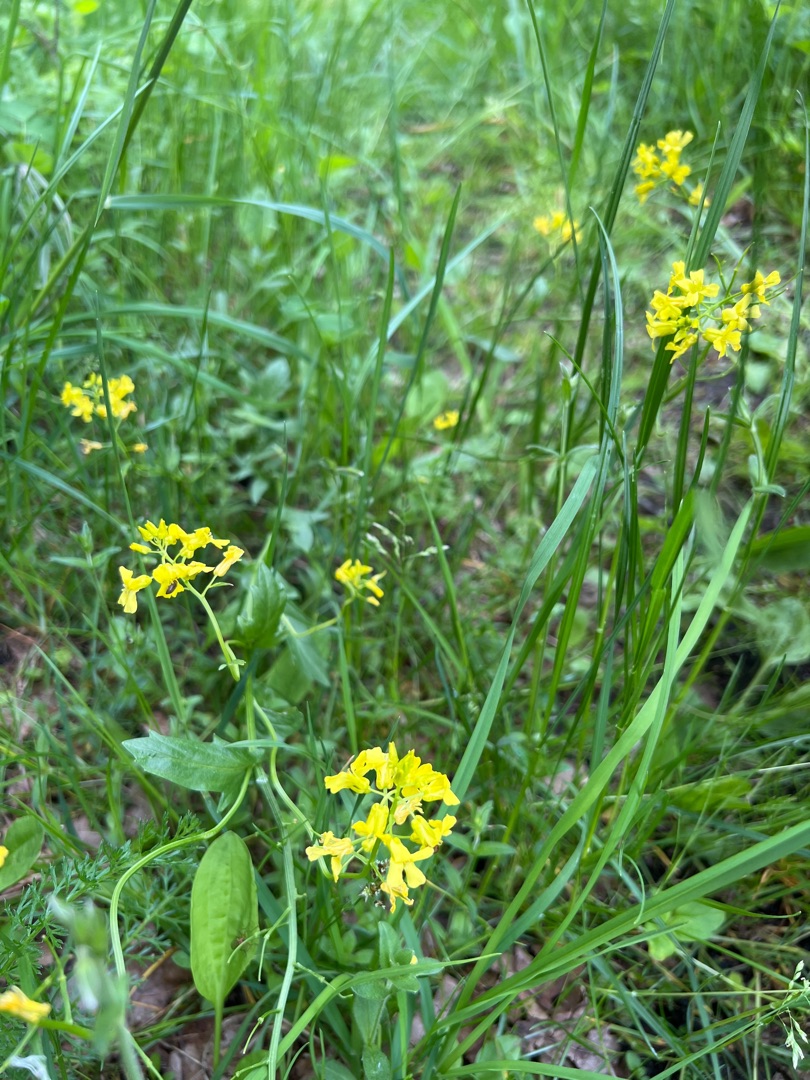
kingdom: Plantae
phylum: Tracheophyta
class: Magnoliopsida
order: Brassicales
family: Brassicaceae
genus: Barbarea
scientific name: Barbarea vulgaris
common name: Udspærret vinterkarse
